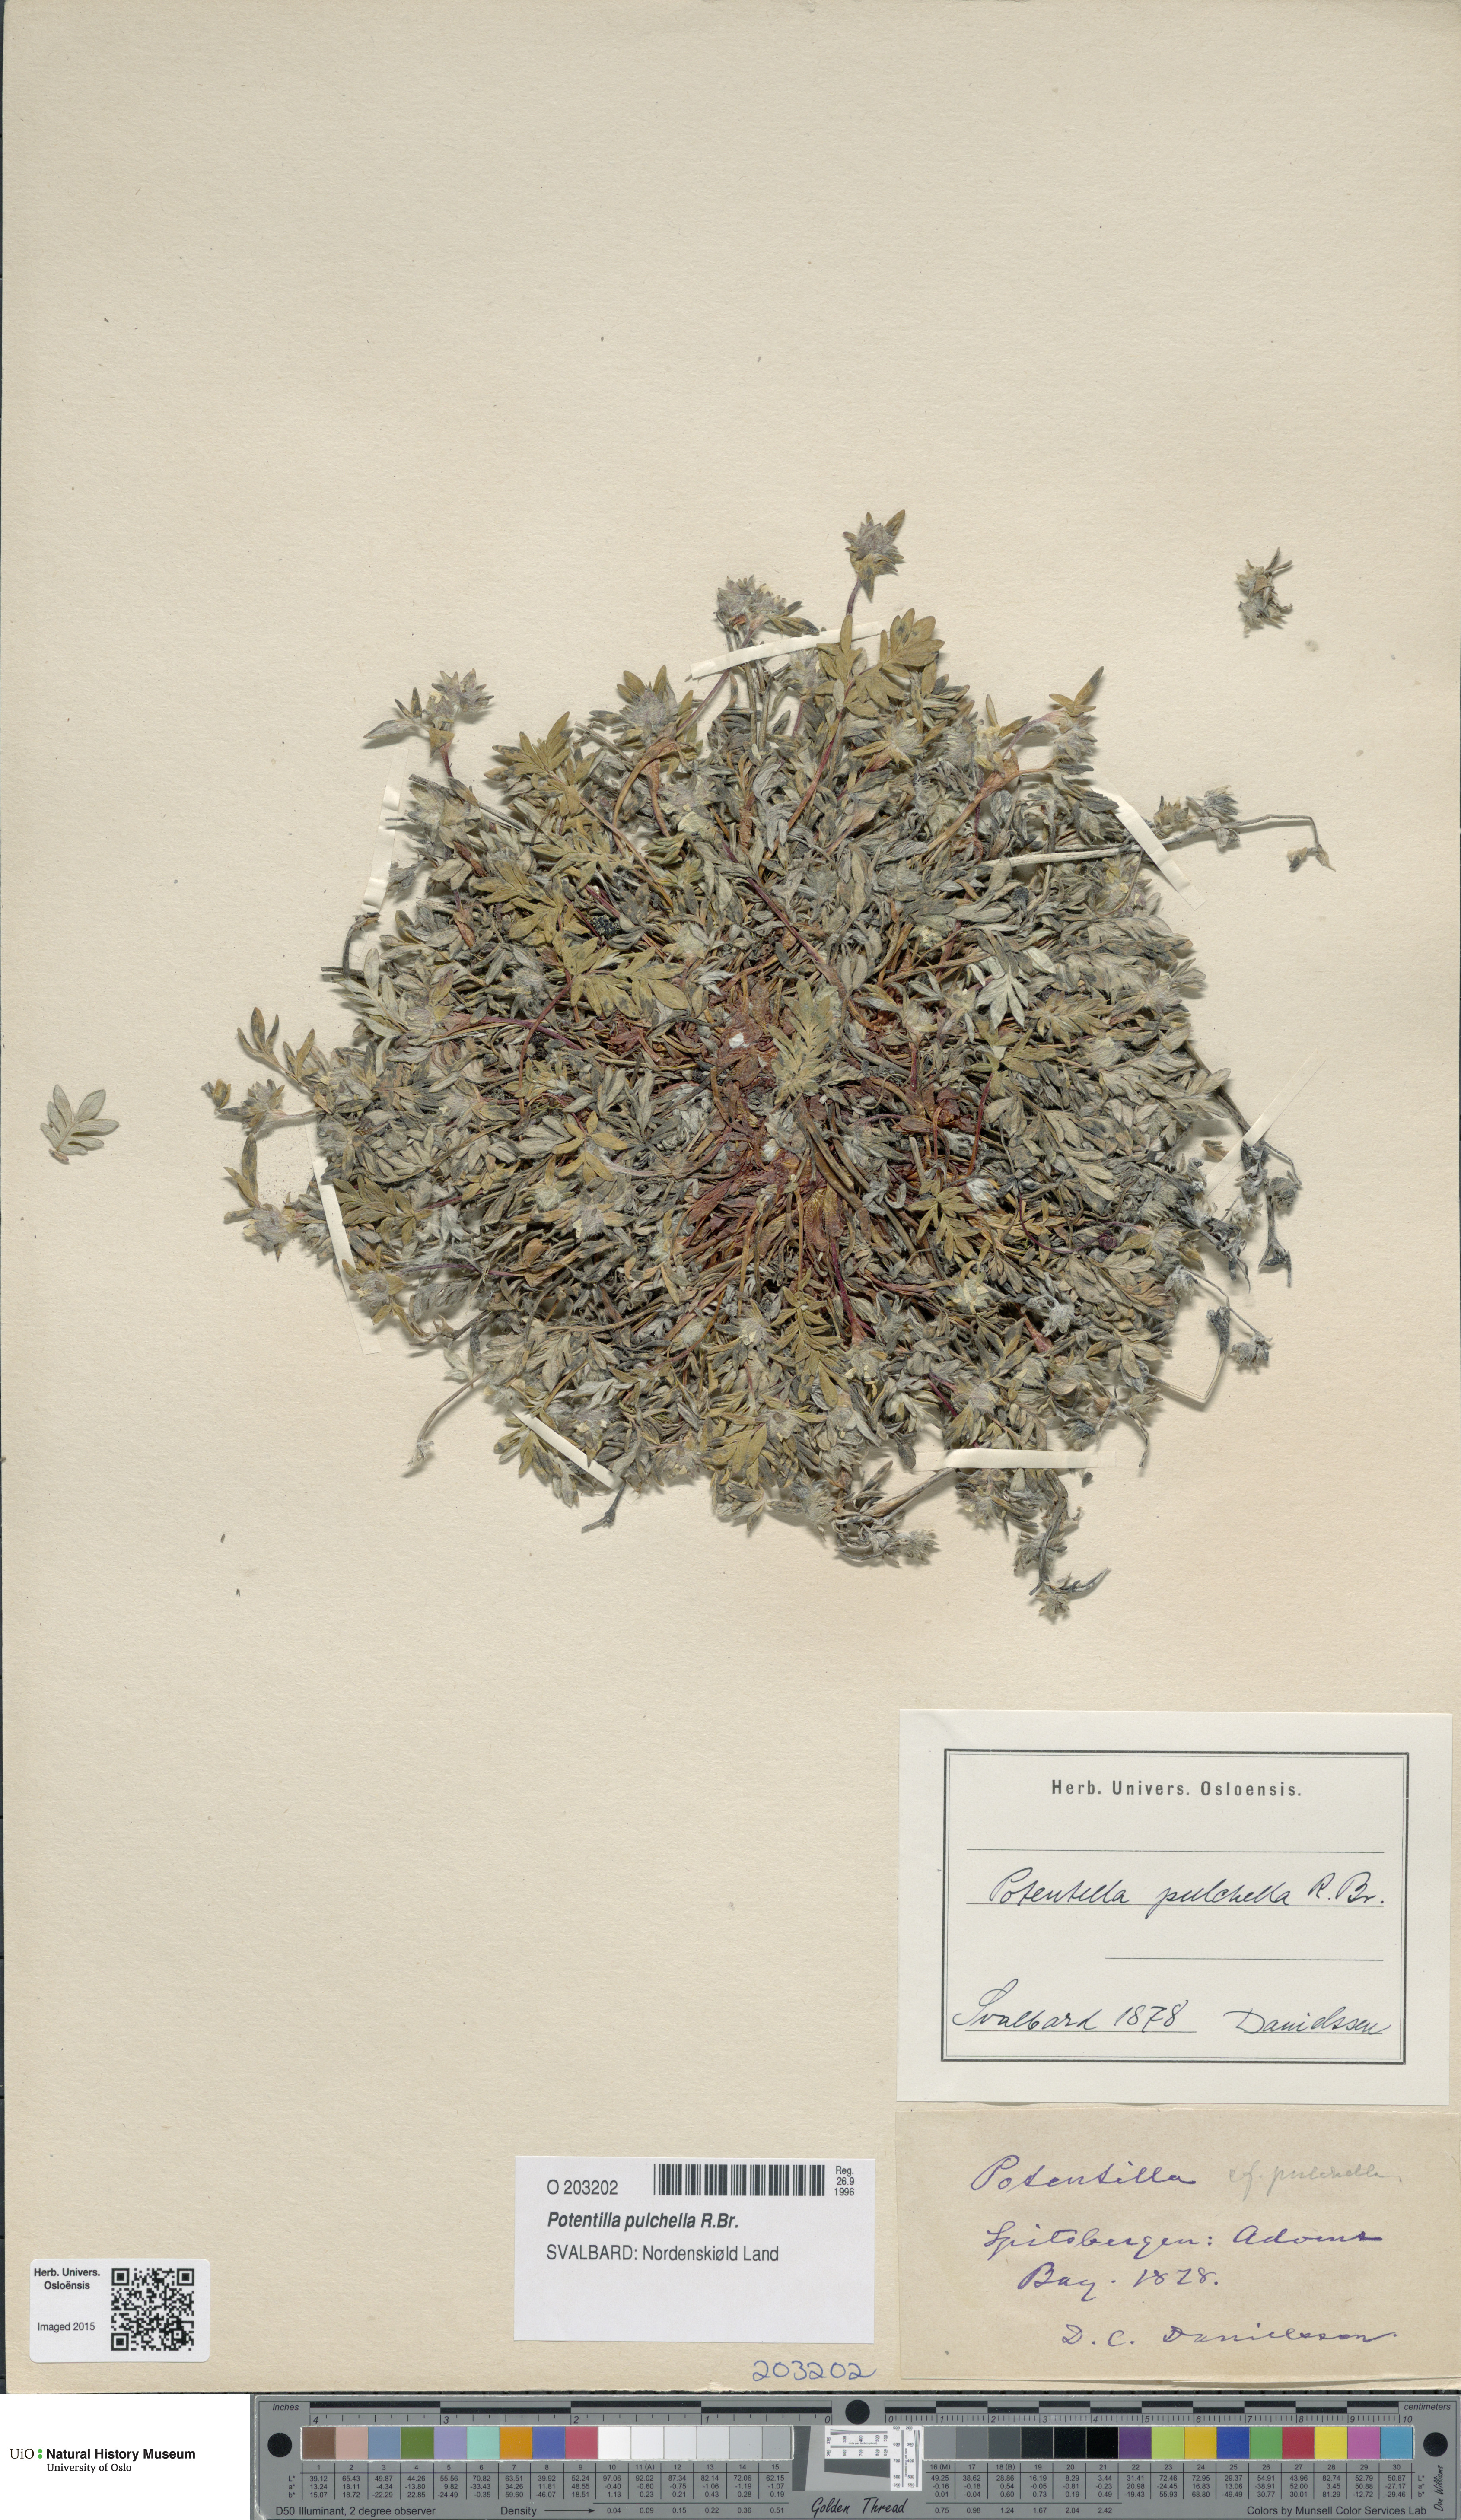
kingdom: Plantae
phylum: Tracheophyta
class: Magnoliopsida
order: Rosales
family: Rosaceae
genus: Potentilla
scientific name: Potentilla pulchella
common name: Pretty cinquefoil
